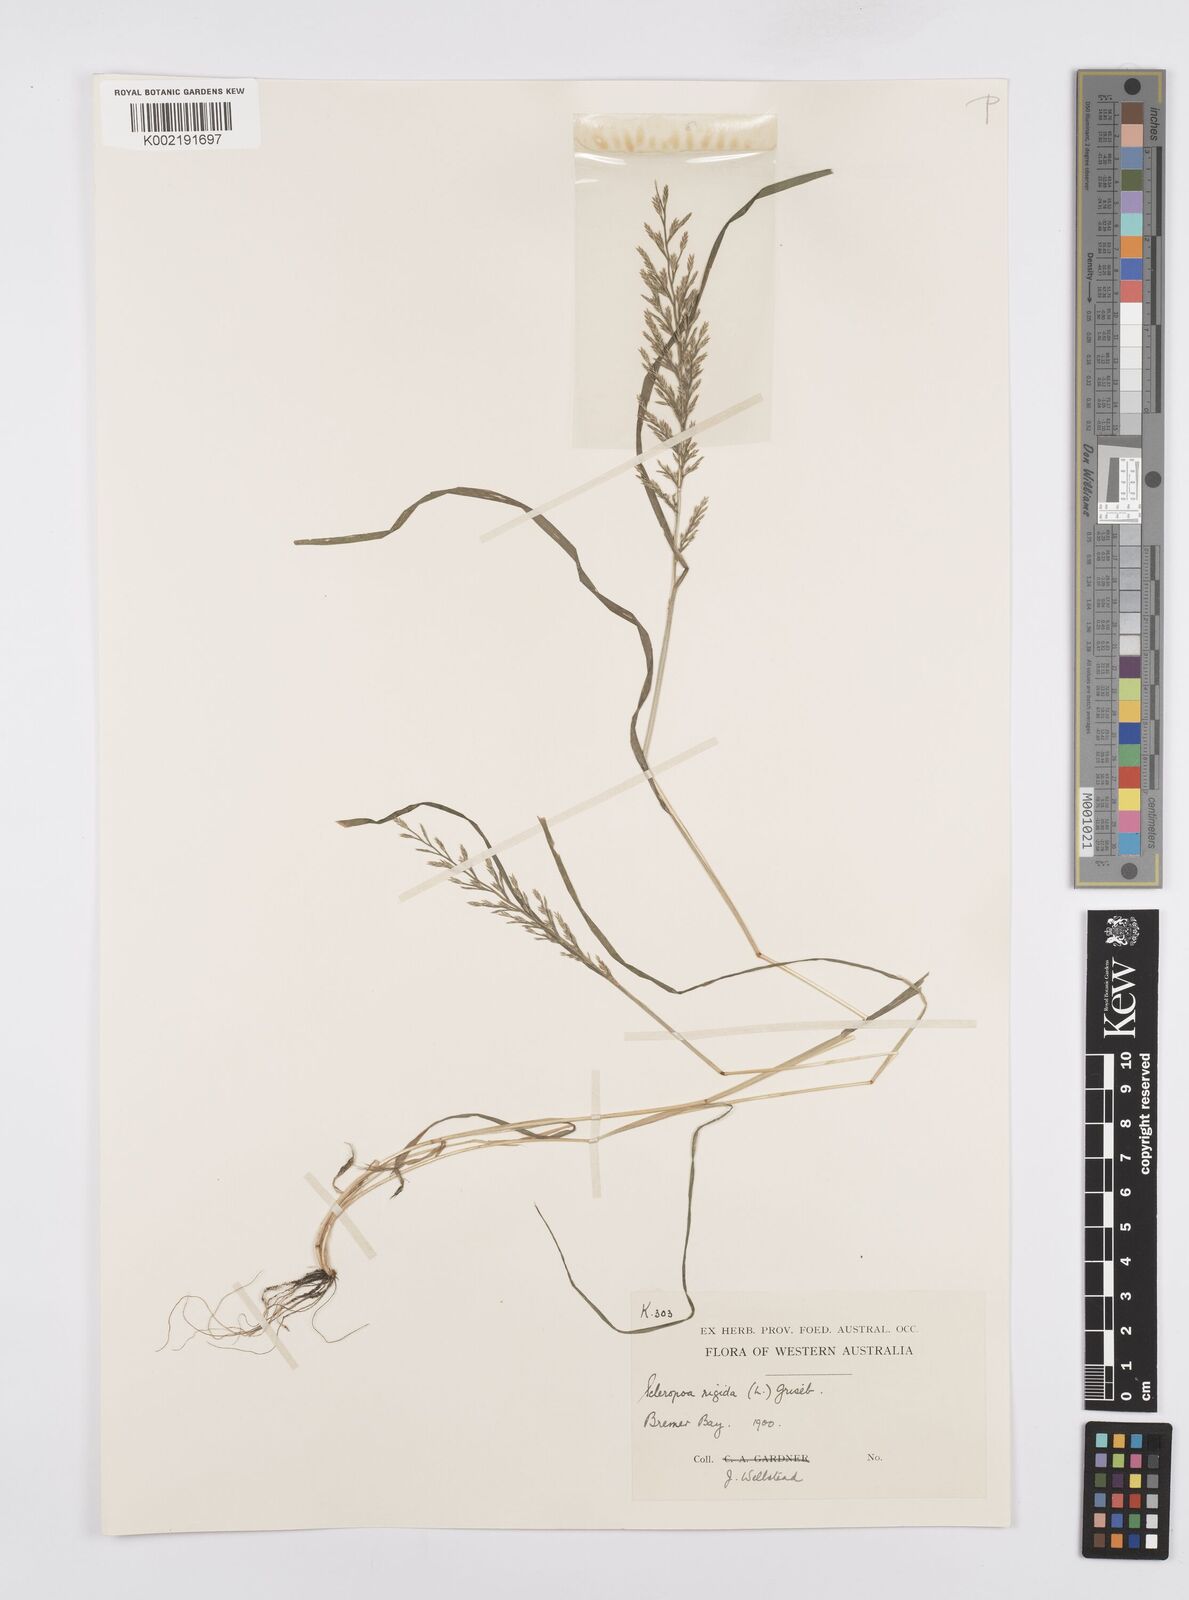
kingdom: Plantae
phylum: Tracheophyta
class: Liliopsida
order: Poales
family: Poaceae
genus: Catapodium
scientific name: Catapodium rigidum
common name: Fern-grass
